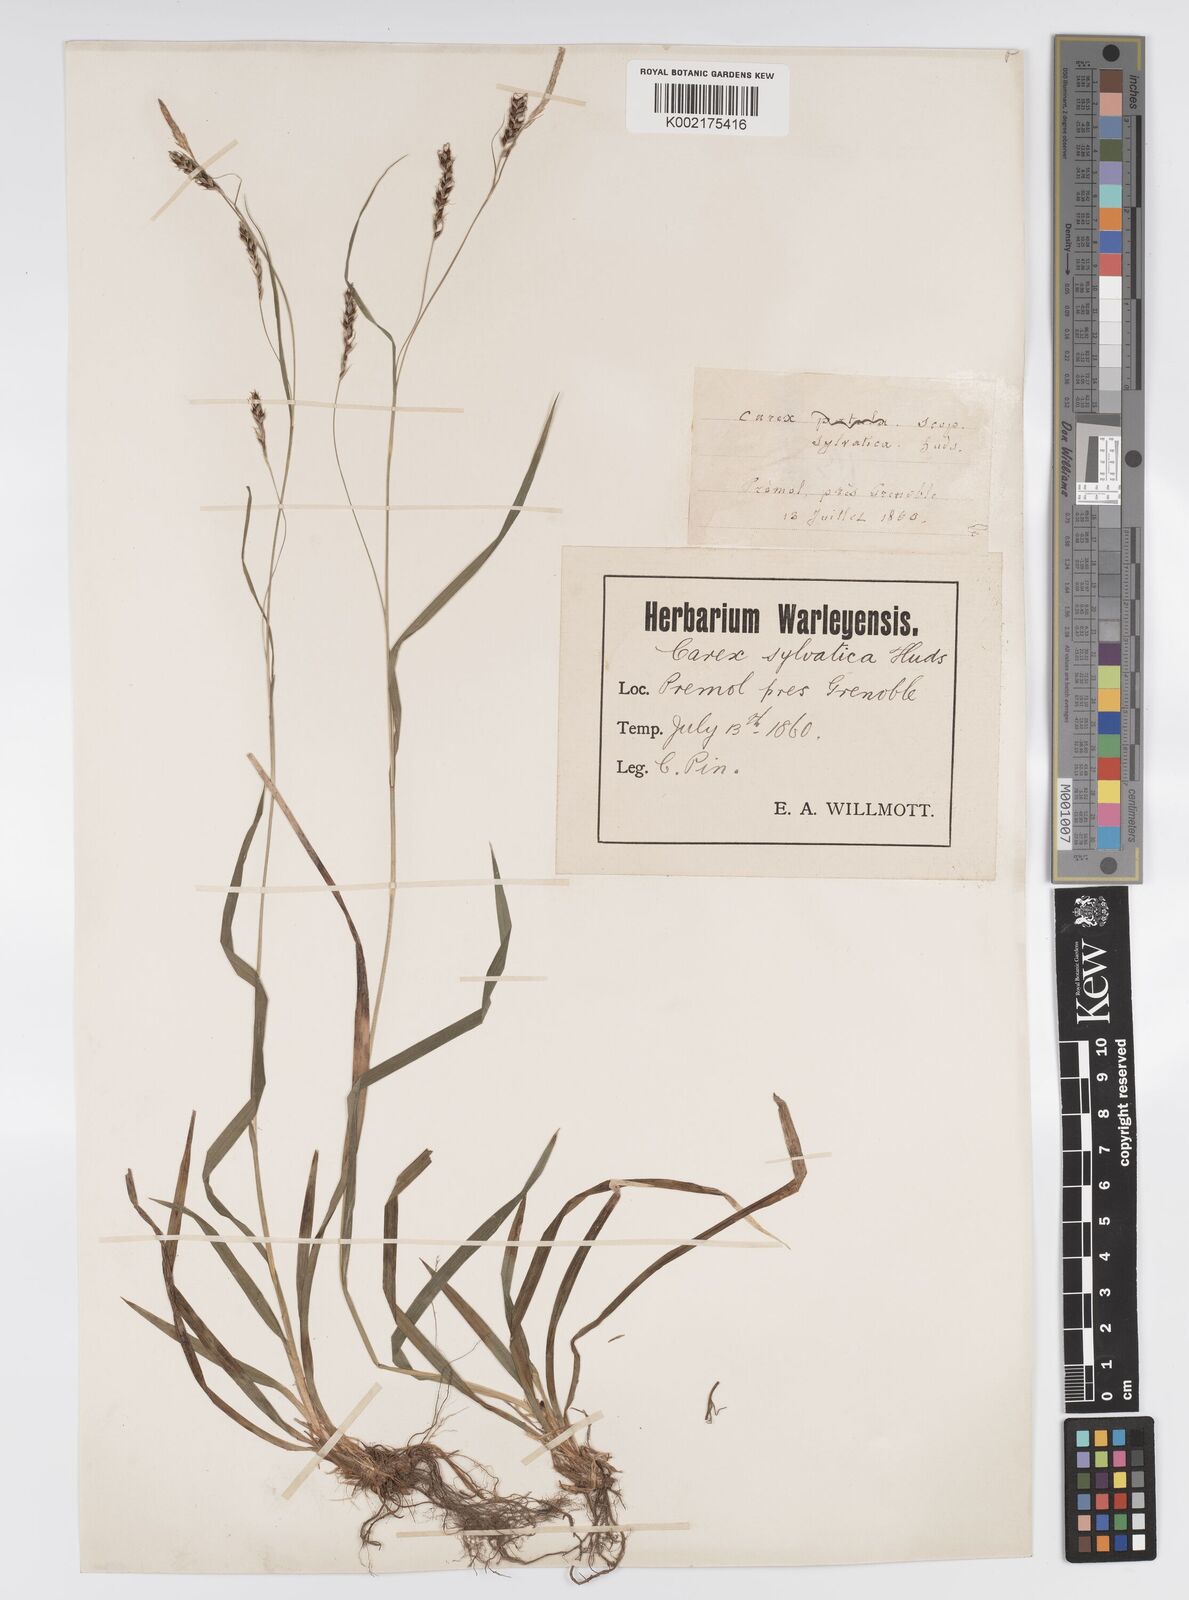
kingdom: Plantae
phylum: Tracheophyta
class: Liliopsida
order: Poales
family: Cyperaceae
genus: Carex
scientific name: Carex sylvatica
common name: Wood-sedge
